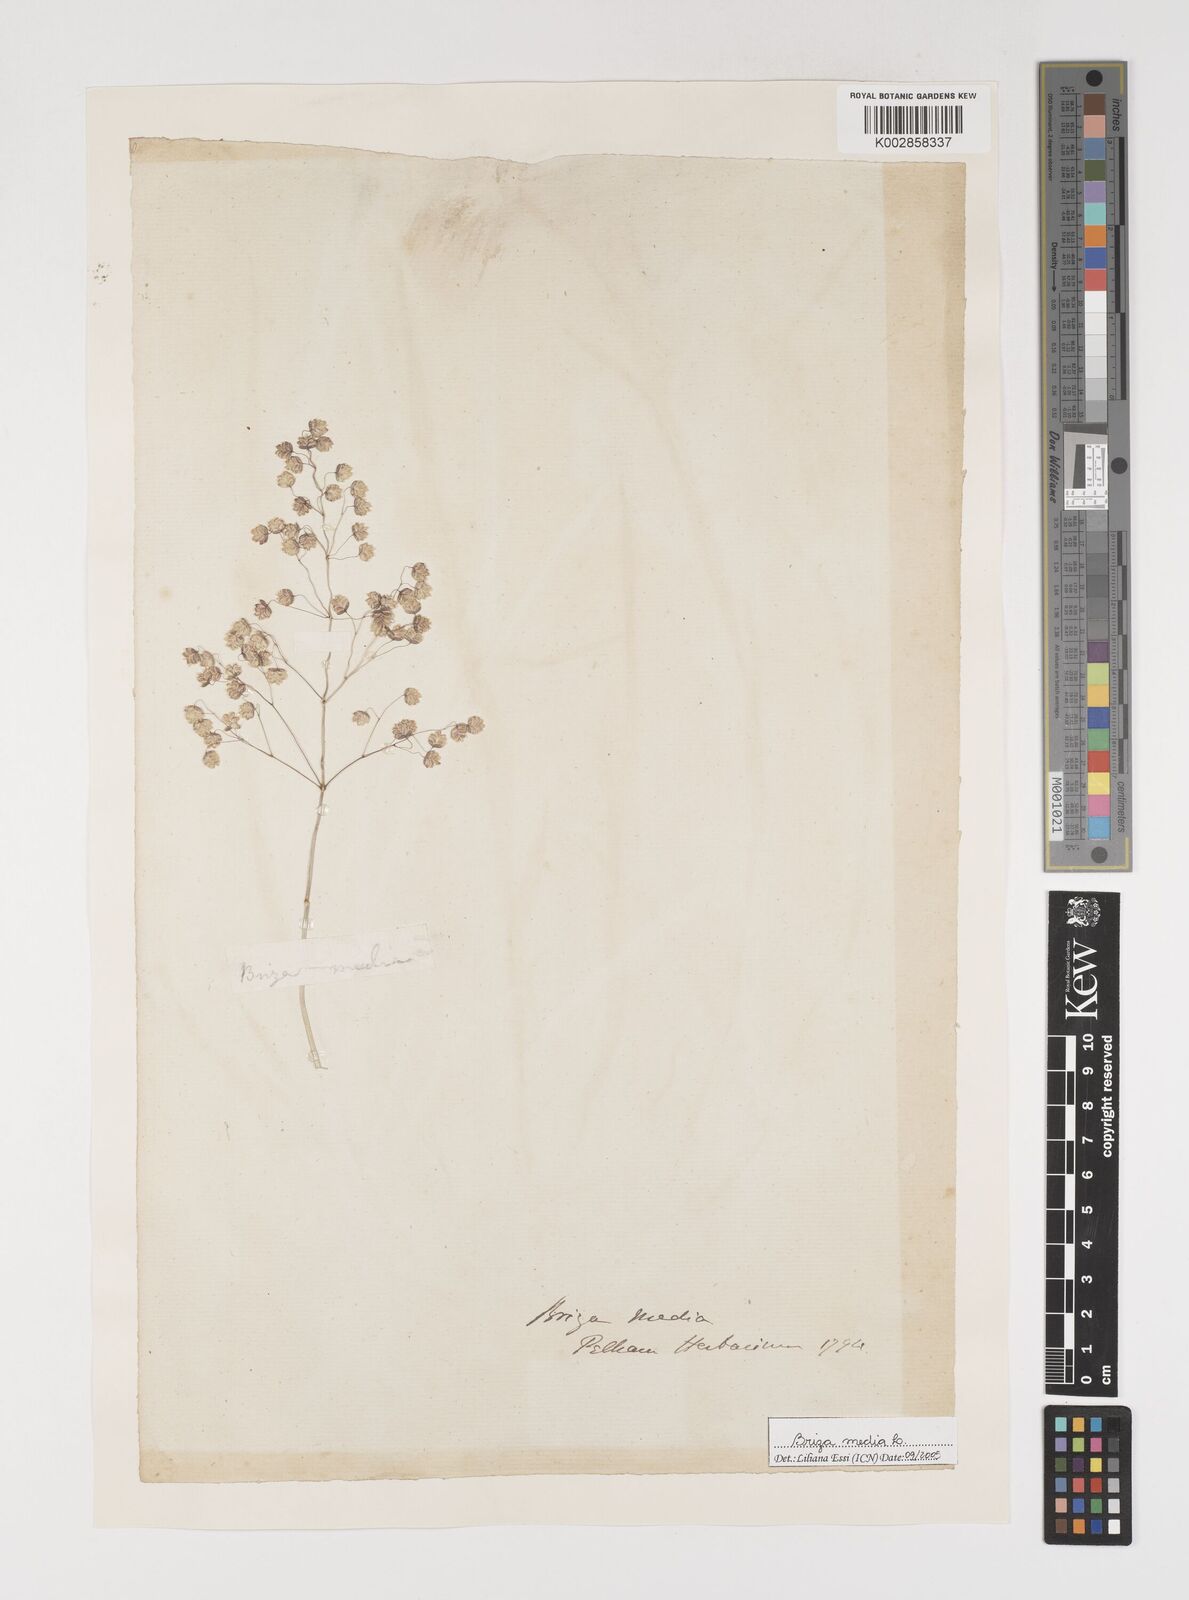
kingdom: Plantae
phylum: Tracheophyta
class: Liliopsida
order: Poales
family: Poaceae
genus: Briza
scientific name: Briza media
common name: Quaking grass
